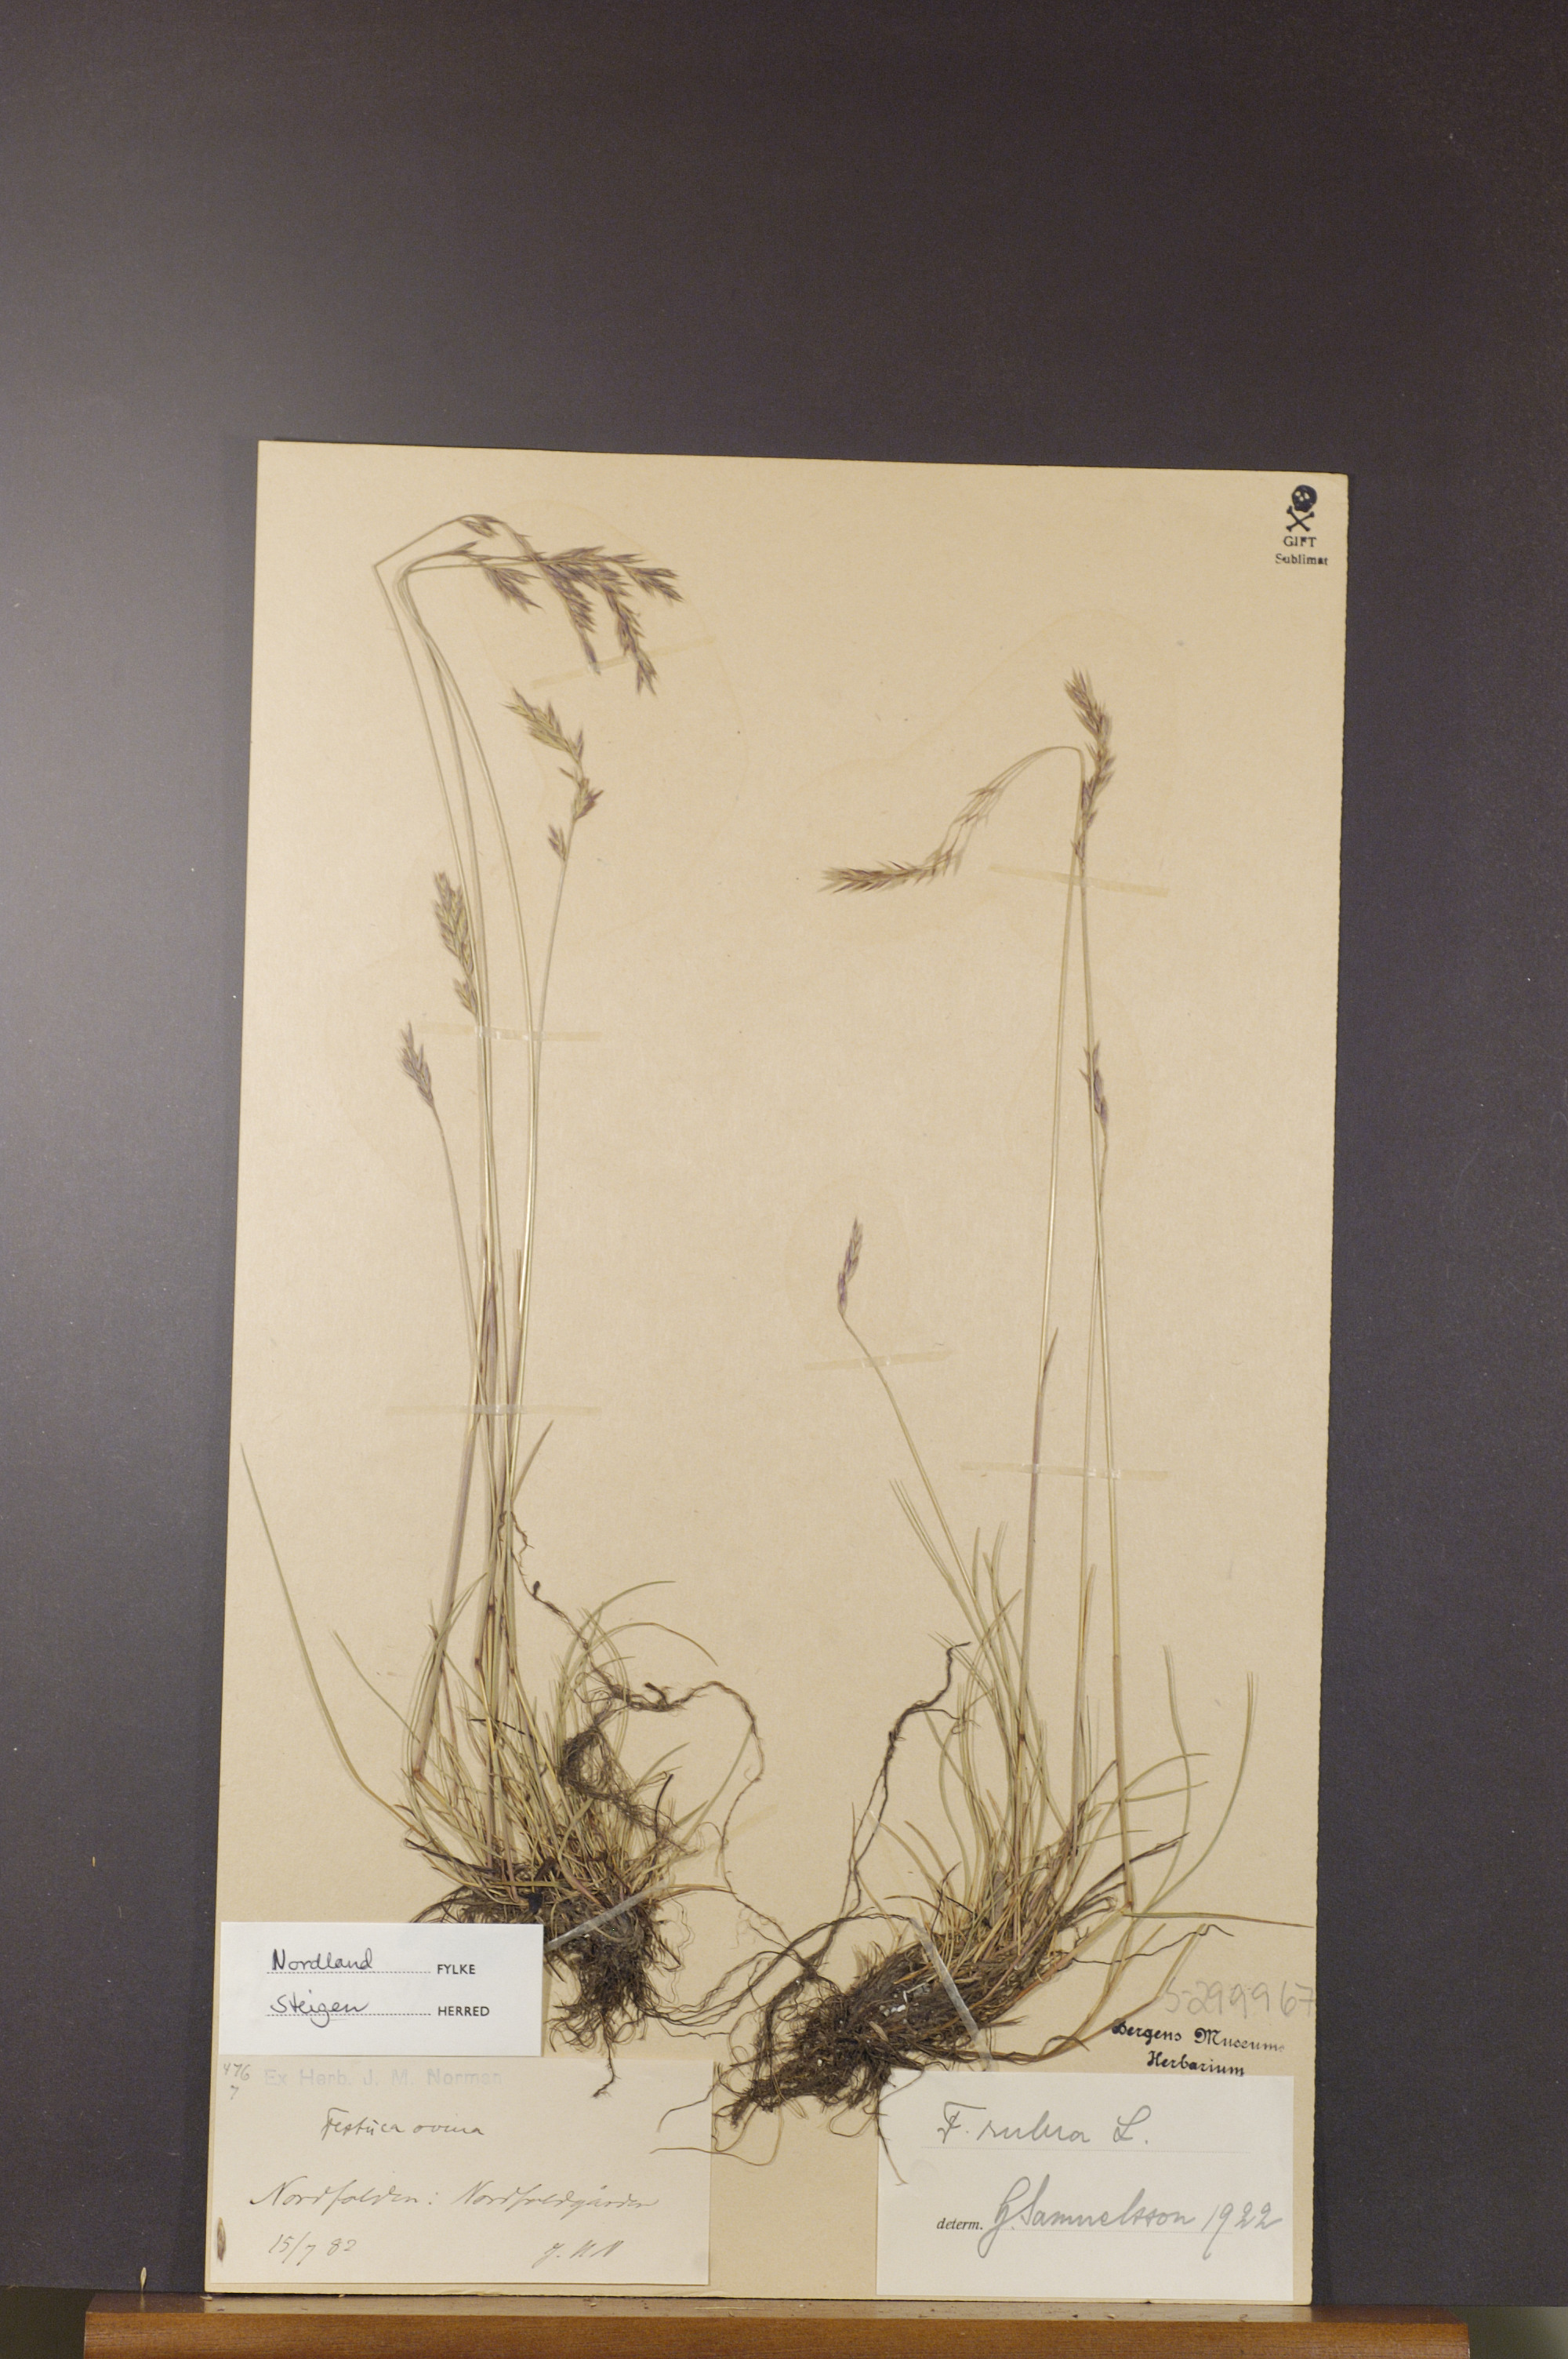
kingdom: Plantae
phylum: Tracheophyta
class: Liliopsida
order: Poales
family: Poaceae
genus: Festuca
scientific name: Festuca rubra
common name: Red fescue
